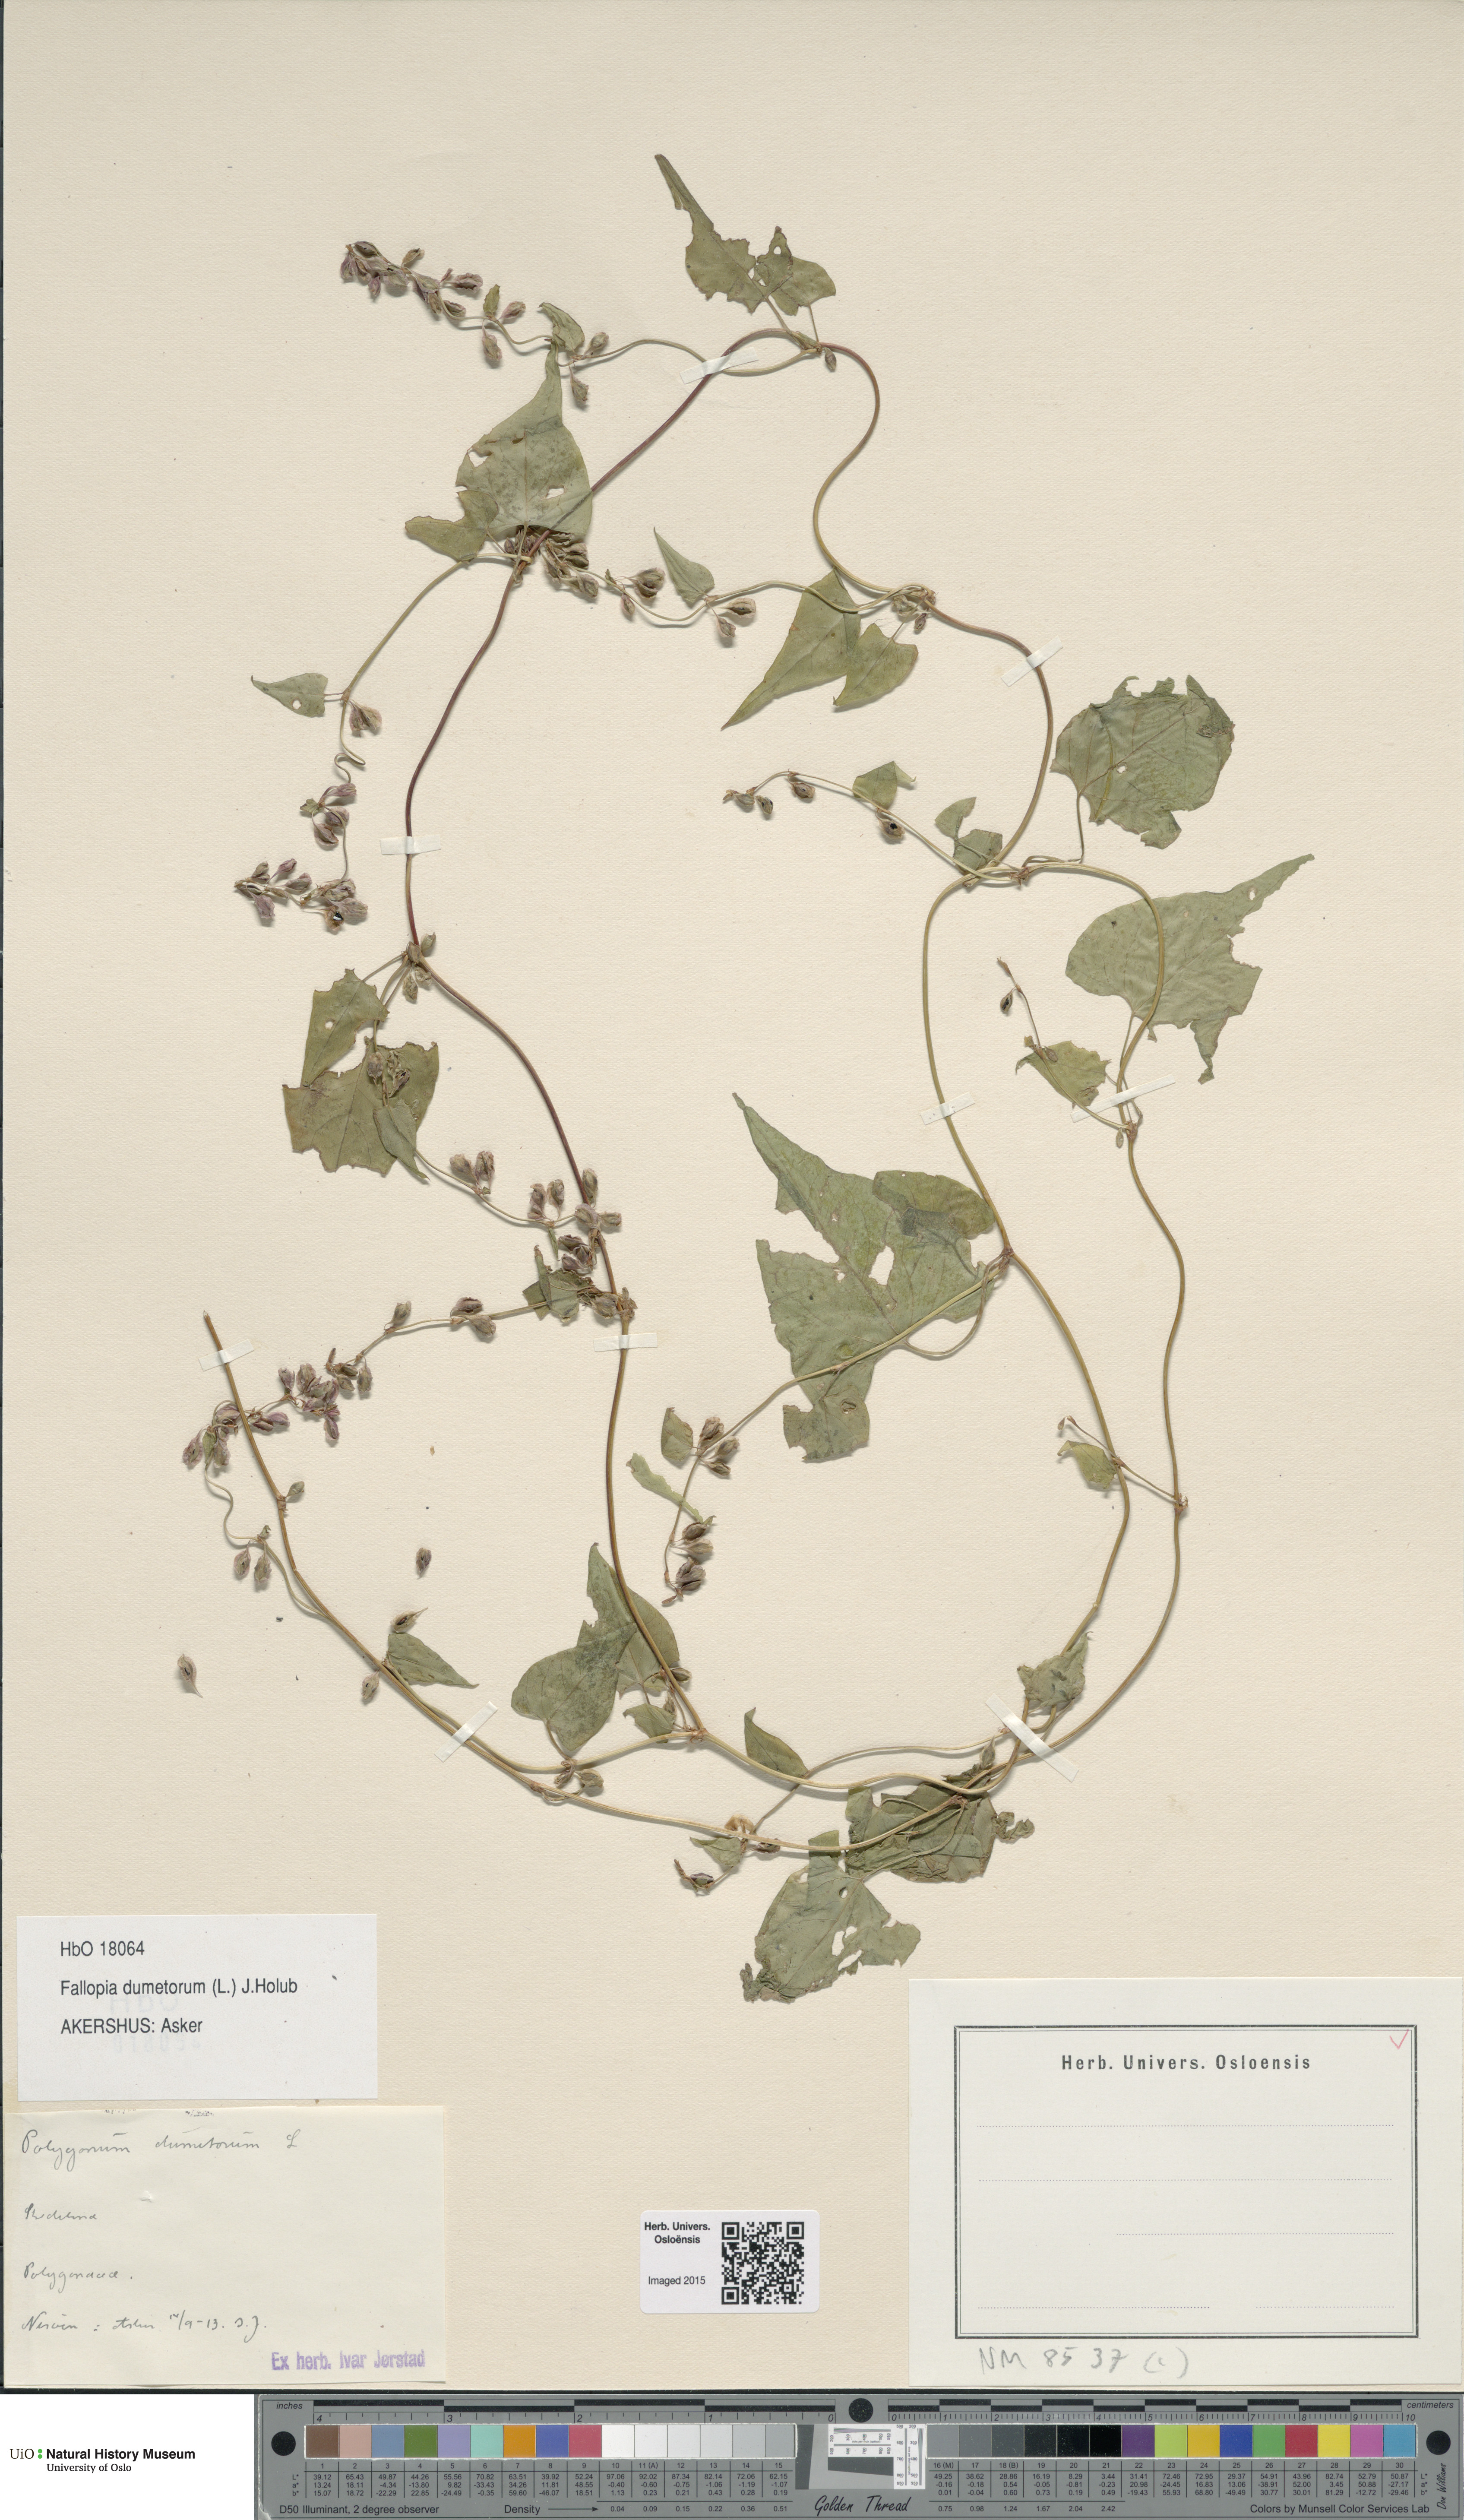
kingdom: Plantae
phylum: Tracheophyta
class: Magnoliopsida
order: Caryophyllales
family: Polygonaceae
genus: Fallopia
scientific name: Fallopia dumetorum
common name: Copse-bindweed
